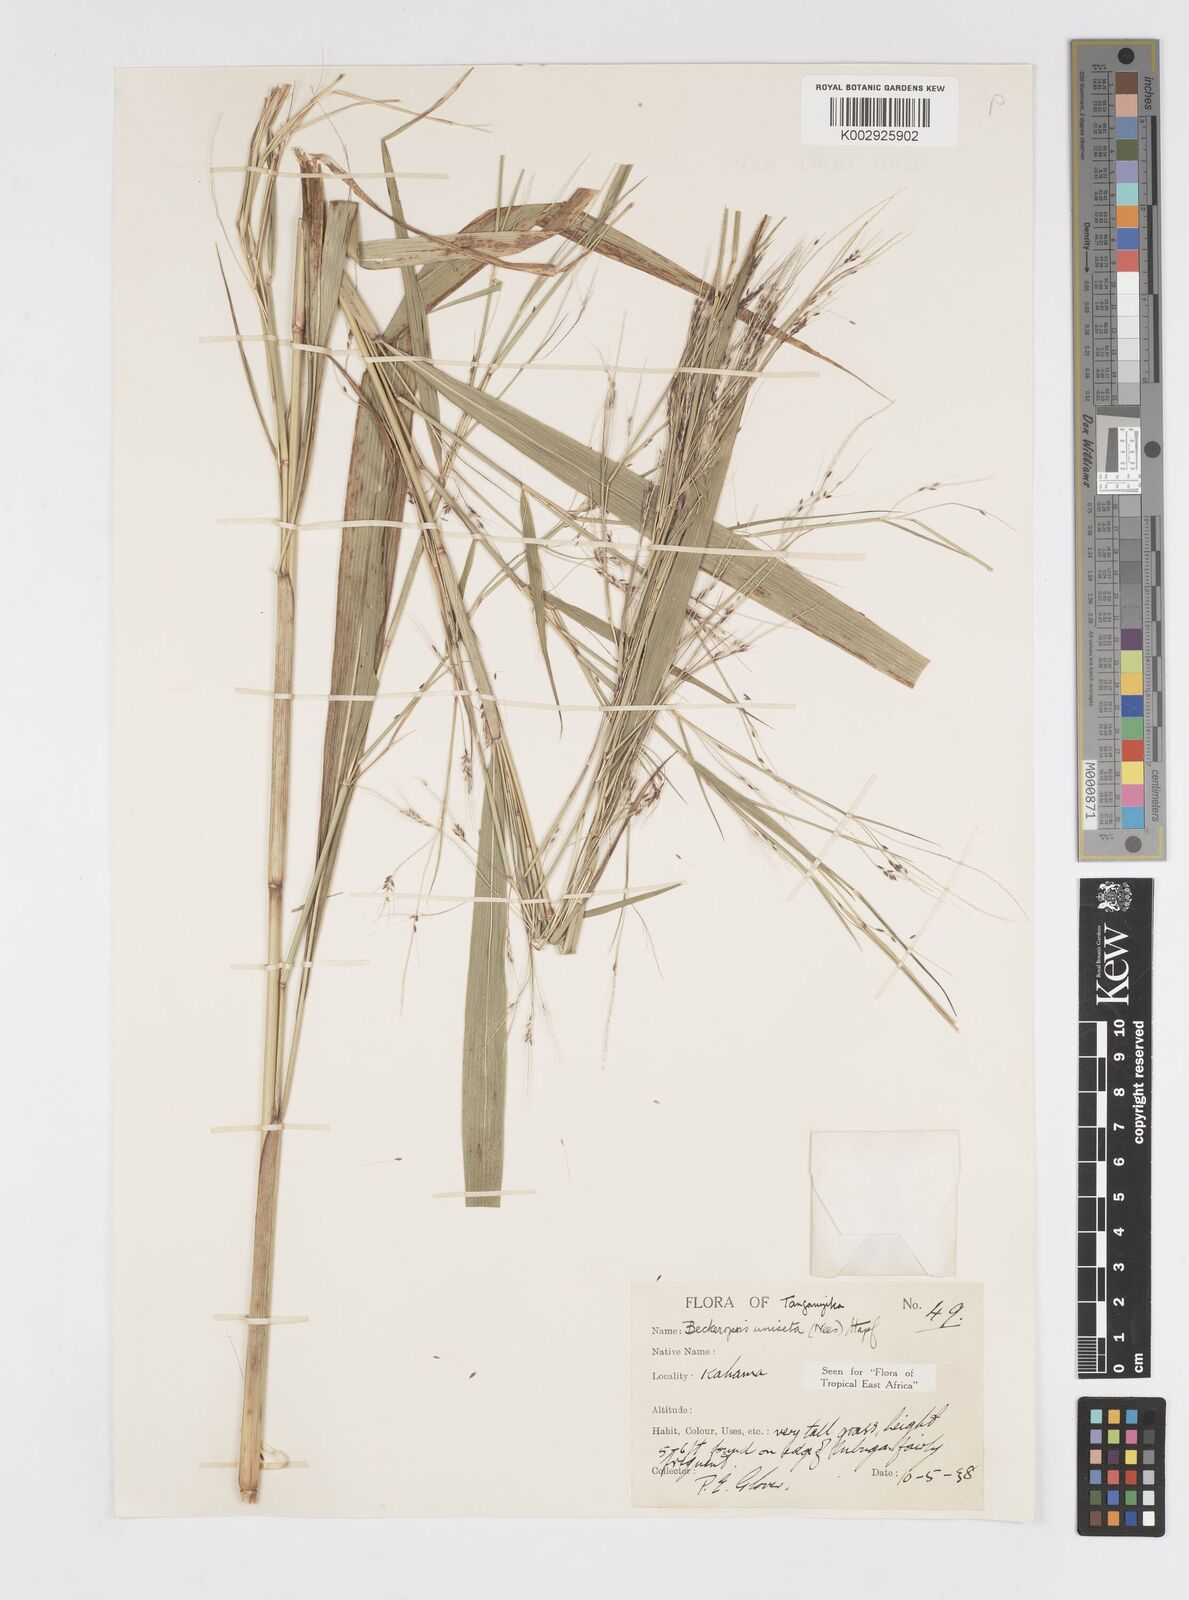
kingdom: Plantae
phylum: Tracheophyta
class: Liliopsida
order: Poales
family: Poaceae
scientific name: Poaceae
